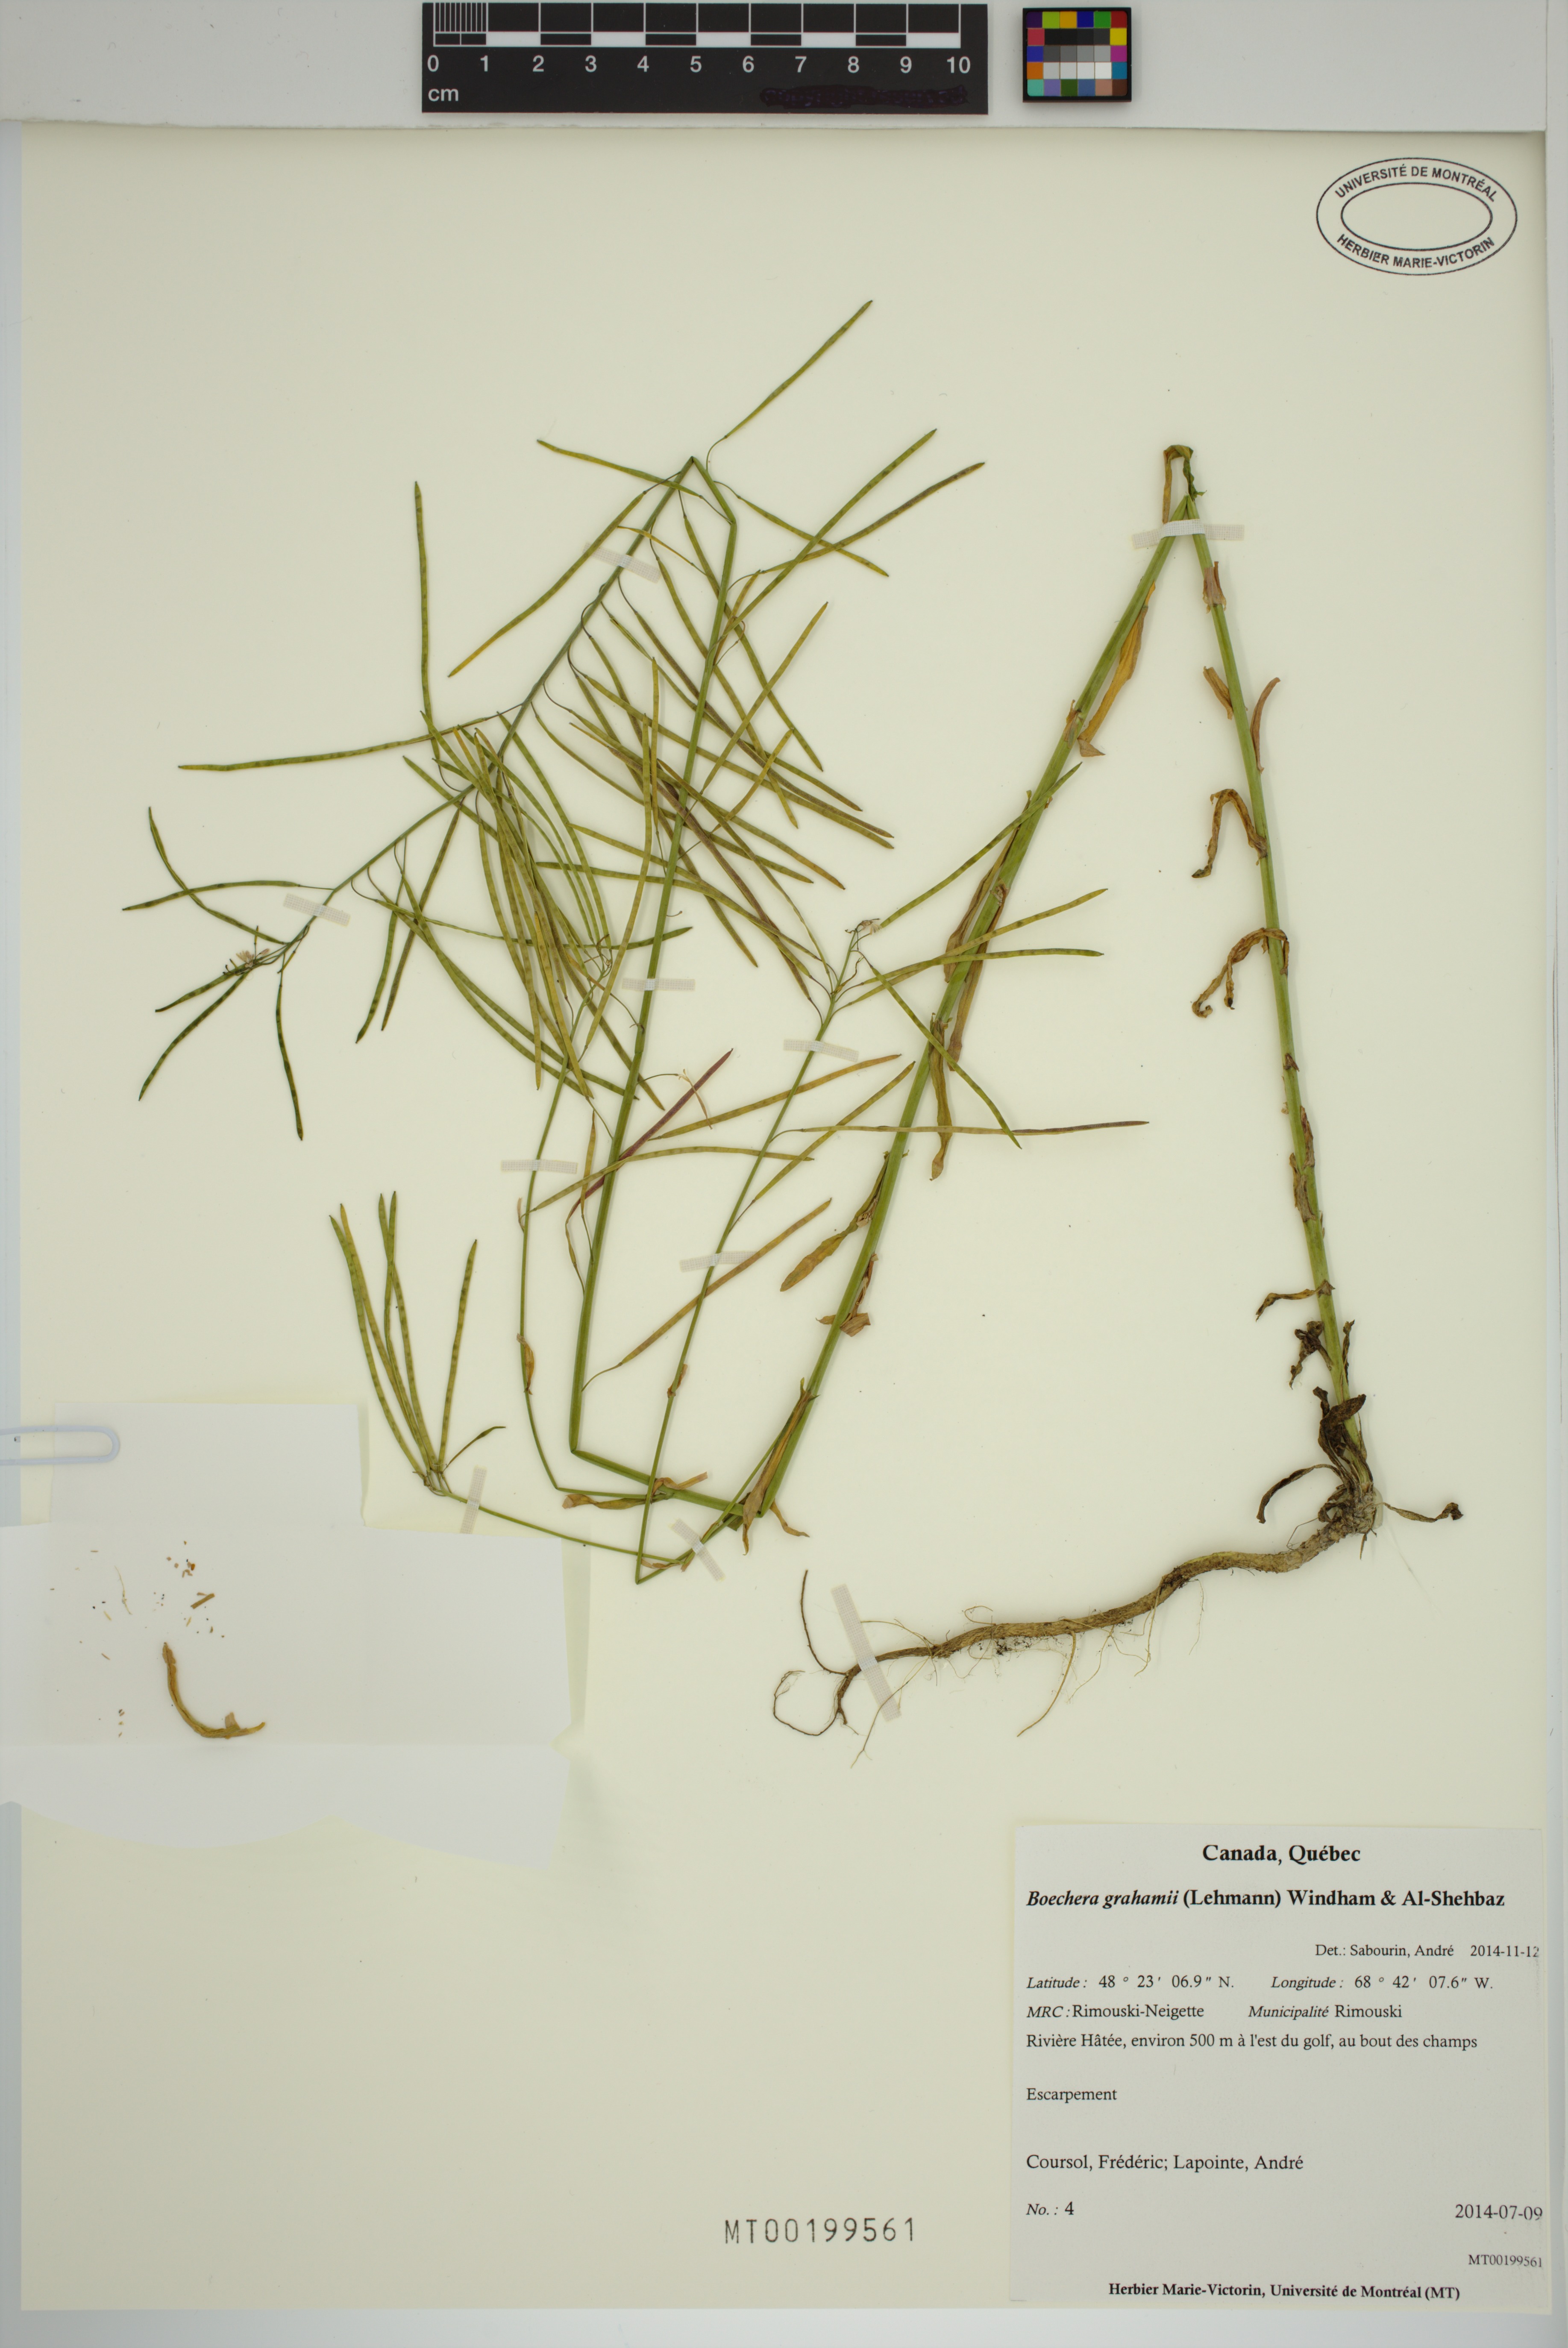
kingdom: Plantae
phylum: Tracheophyta
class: Magnoliopsida
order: Brassicales
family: Brassicaceae
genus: Boechera
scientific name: Boechera grahamii
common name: Graham's rockcress
